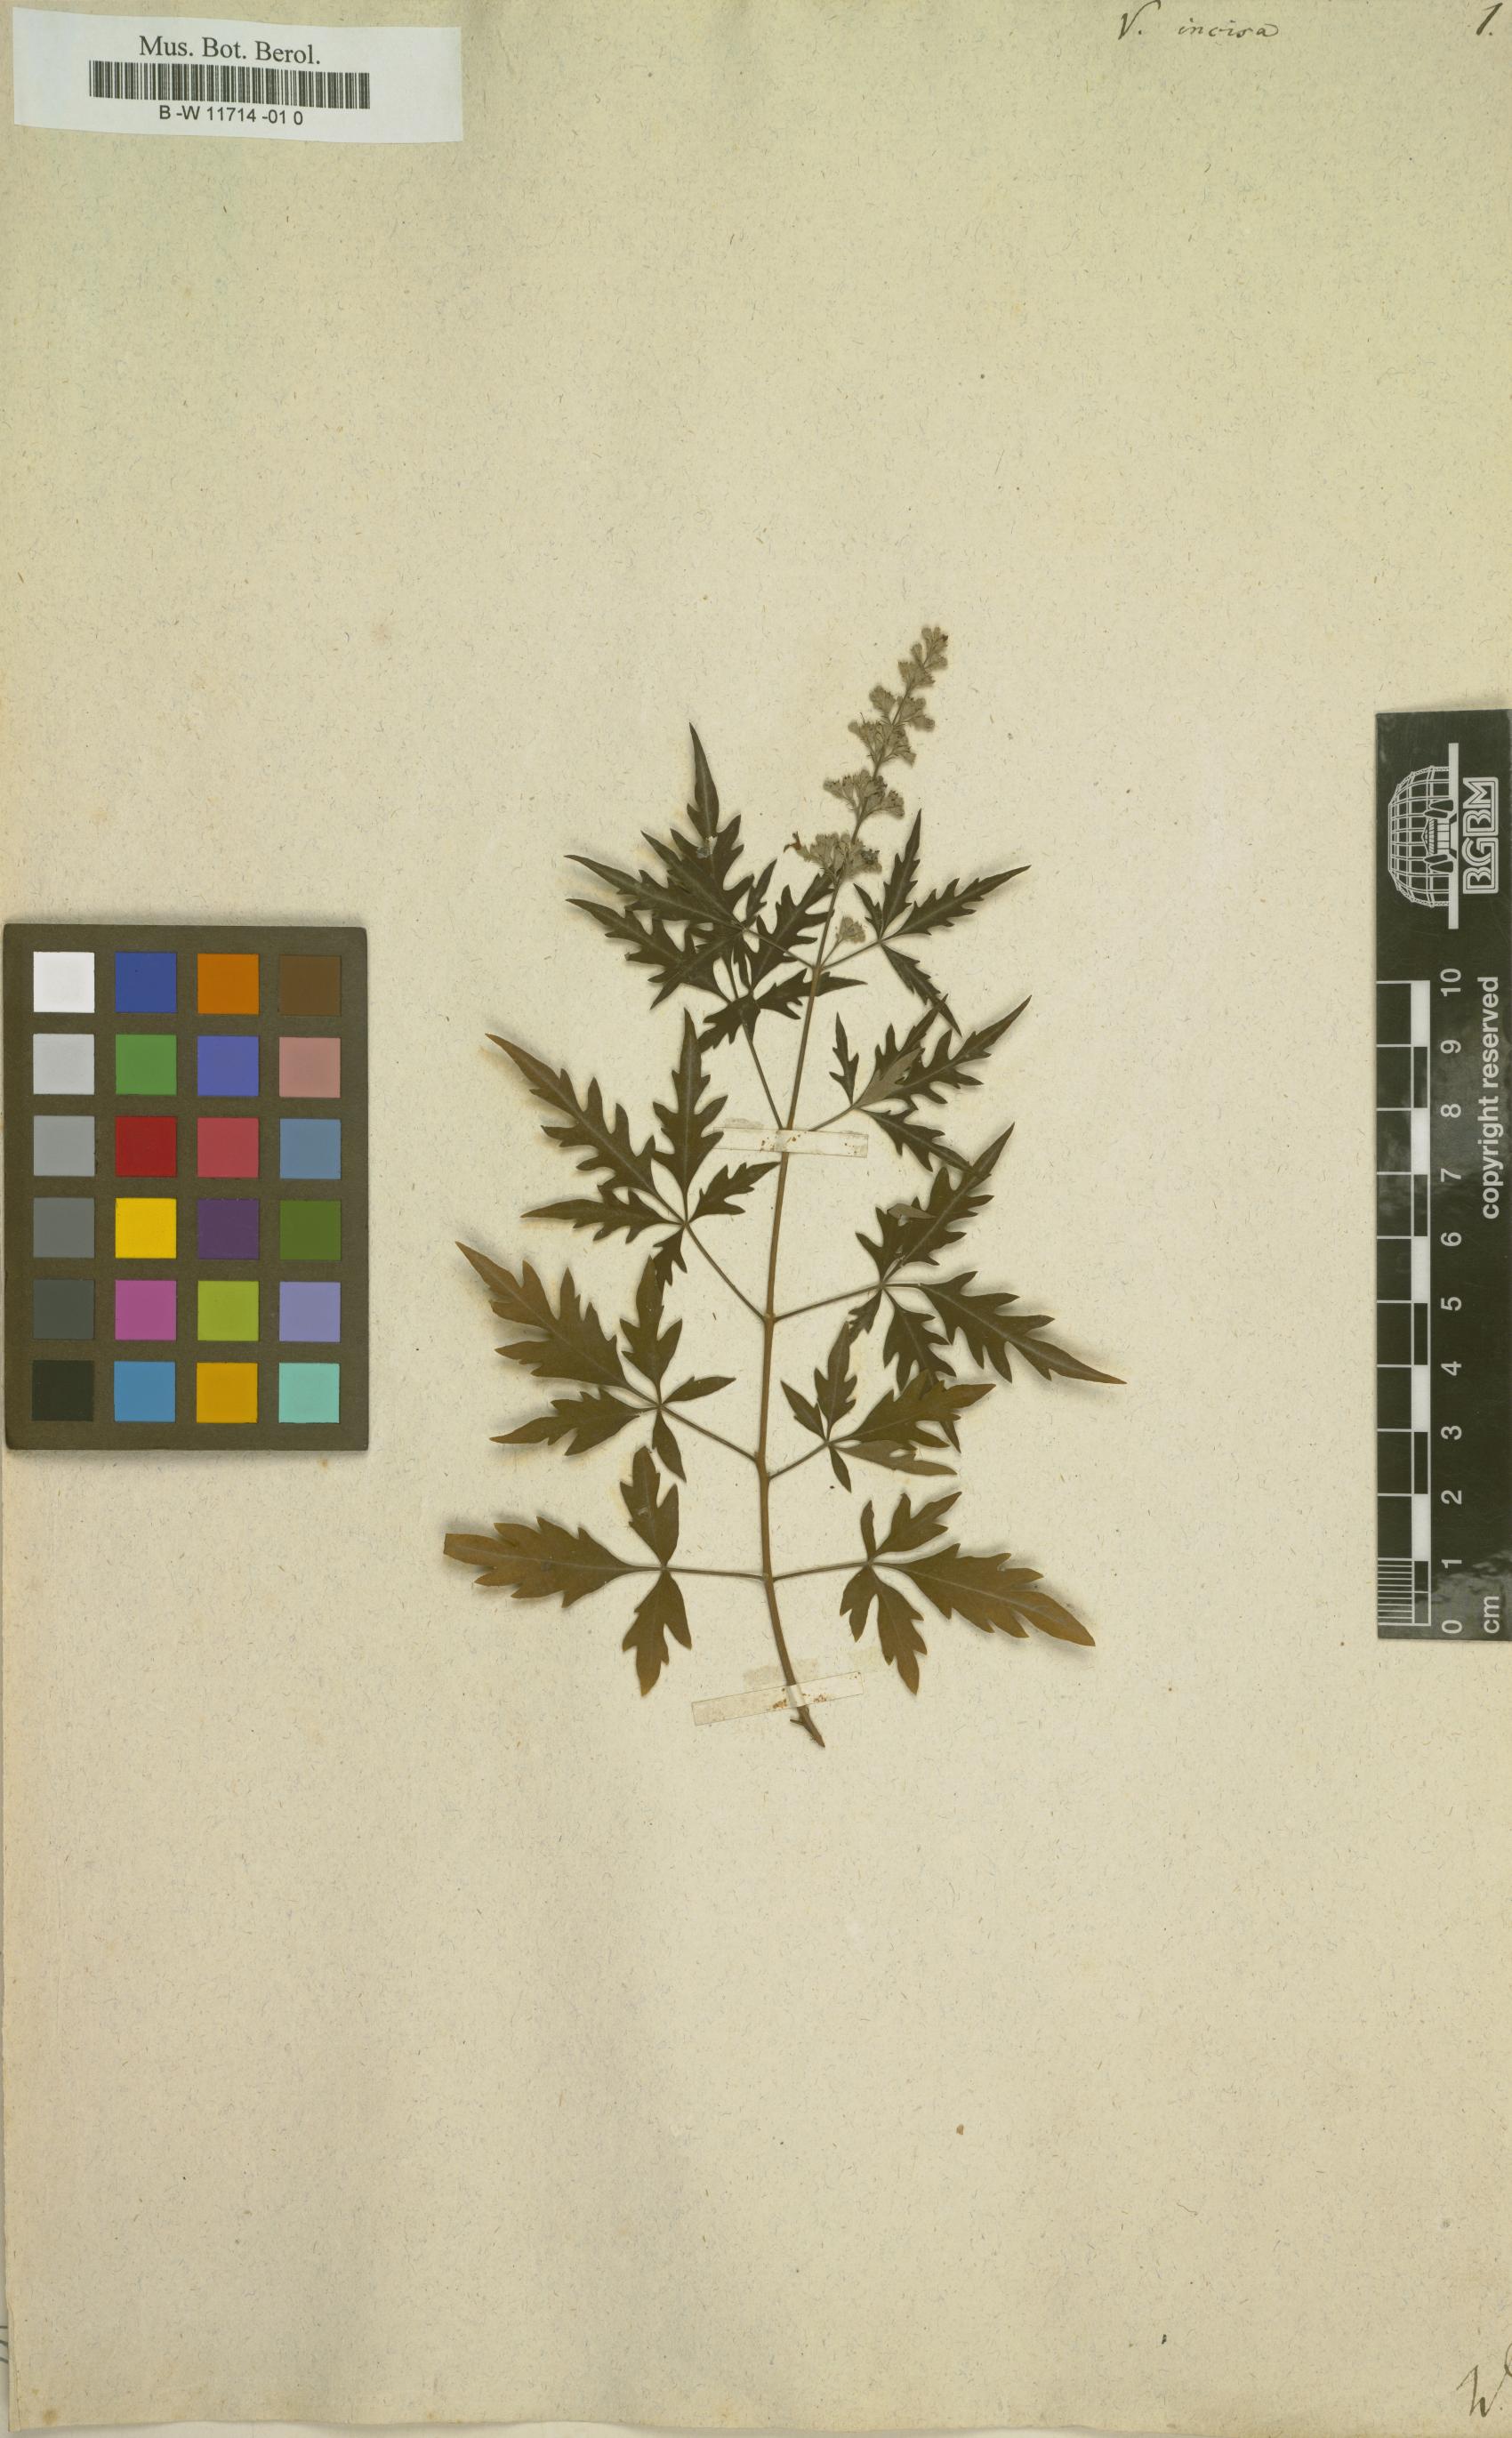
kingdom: Plantae
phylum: Tracheophyta
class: Magnoliopsida
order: Lamiales
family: Lamiaceae
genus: Vitex
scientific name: Vitex negundo
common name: Chinese chastetree
